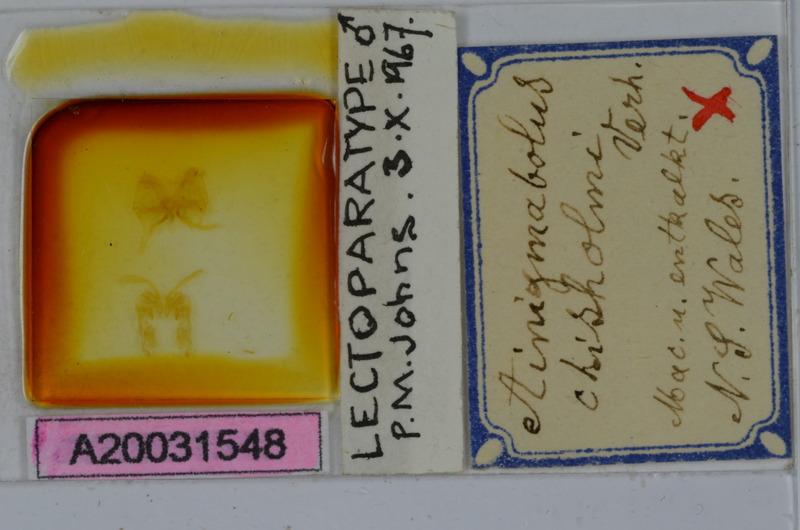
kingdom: Animalia
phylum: Arthropoda
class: Diplopoda
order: Spirobolida
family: Pachybolidae
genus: Ainigmabolus
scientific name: Ainigmabolus chisholmi
